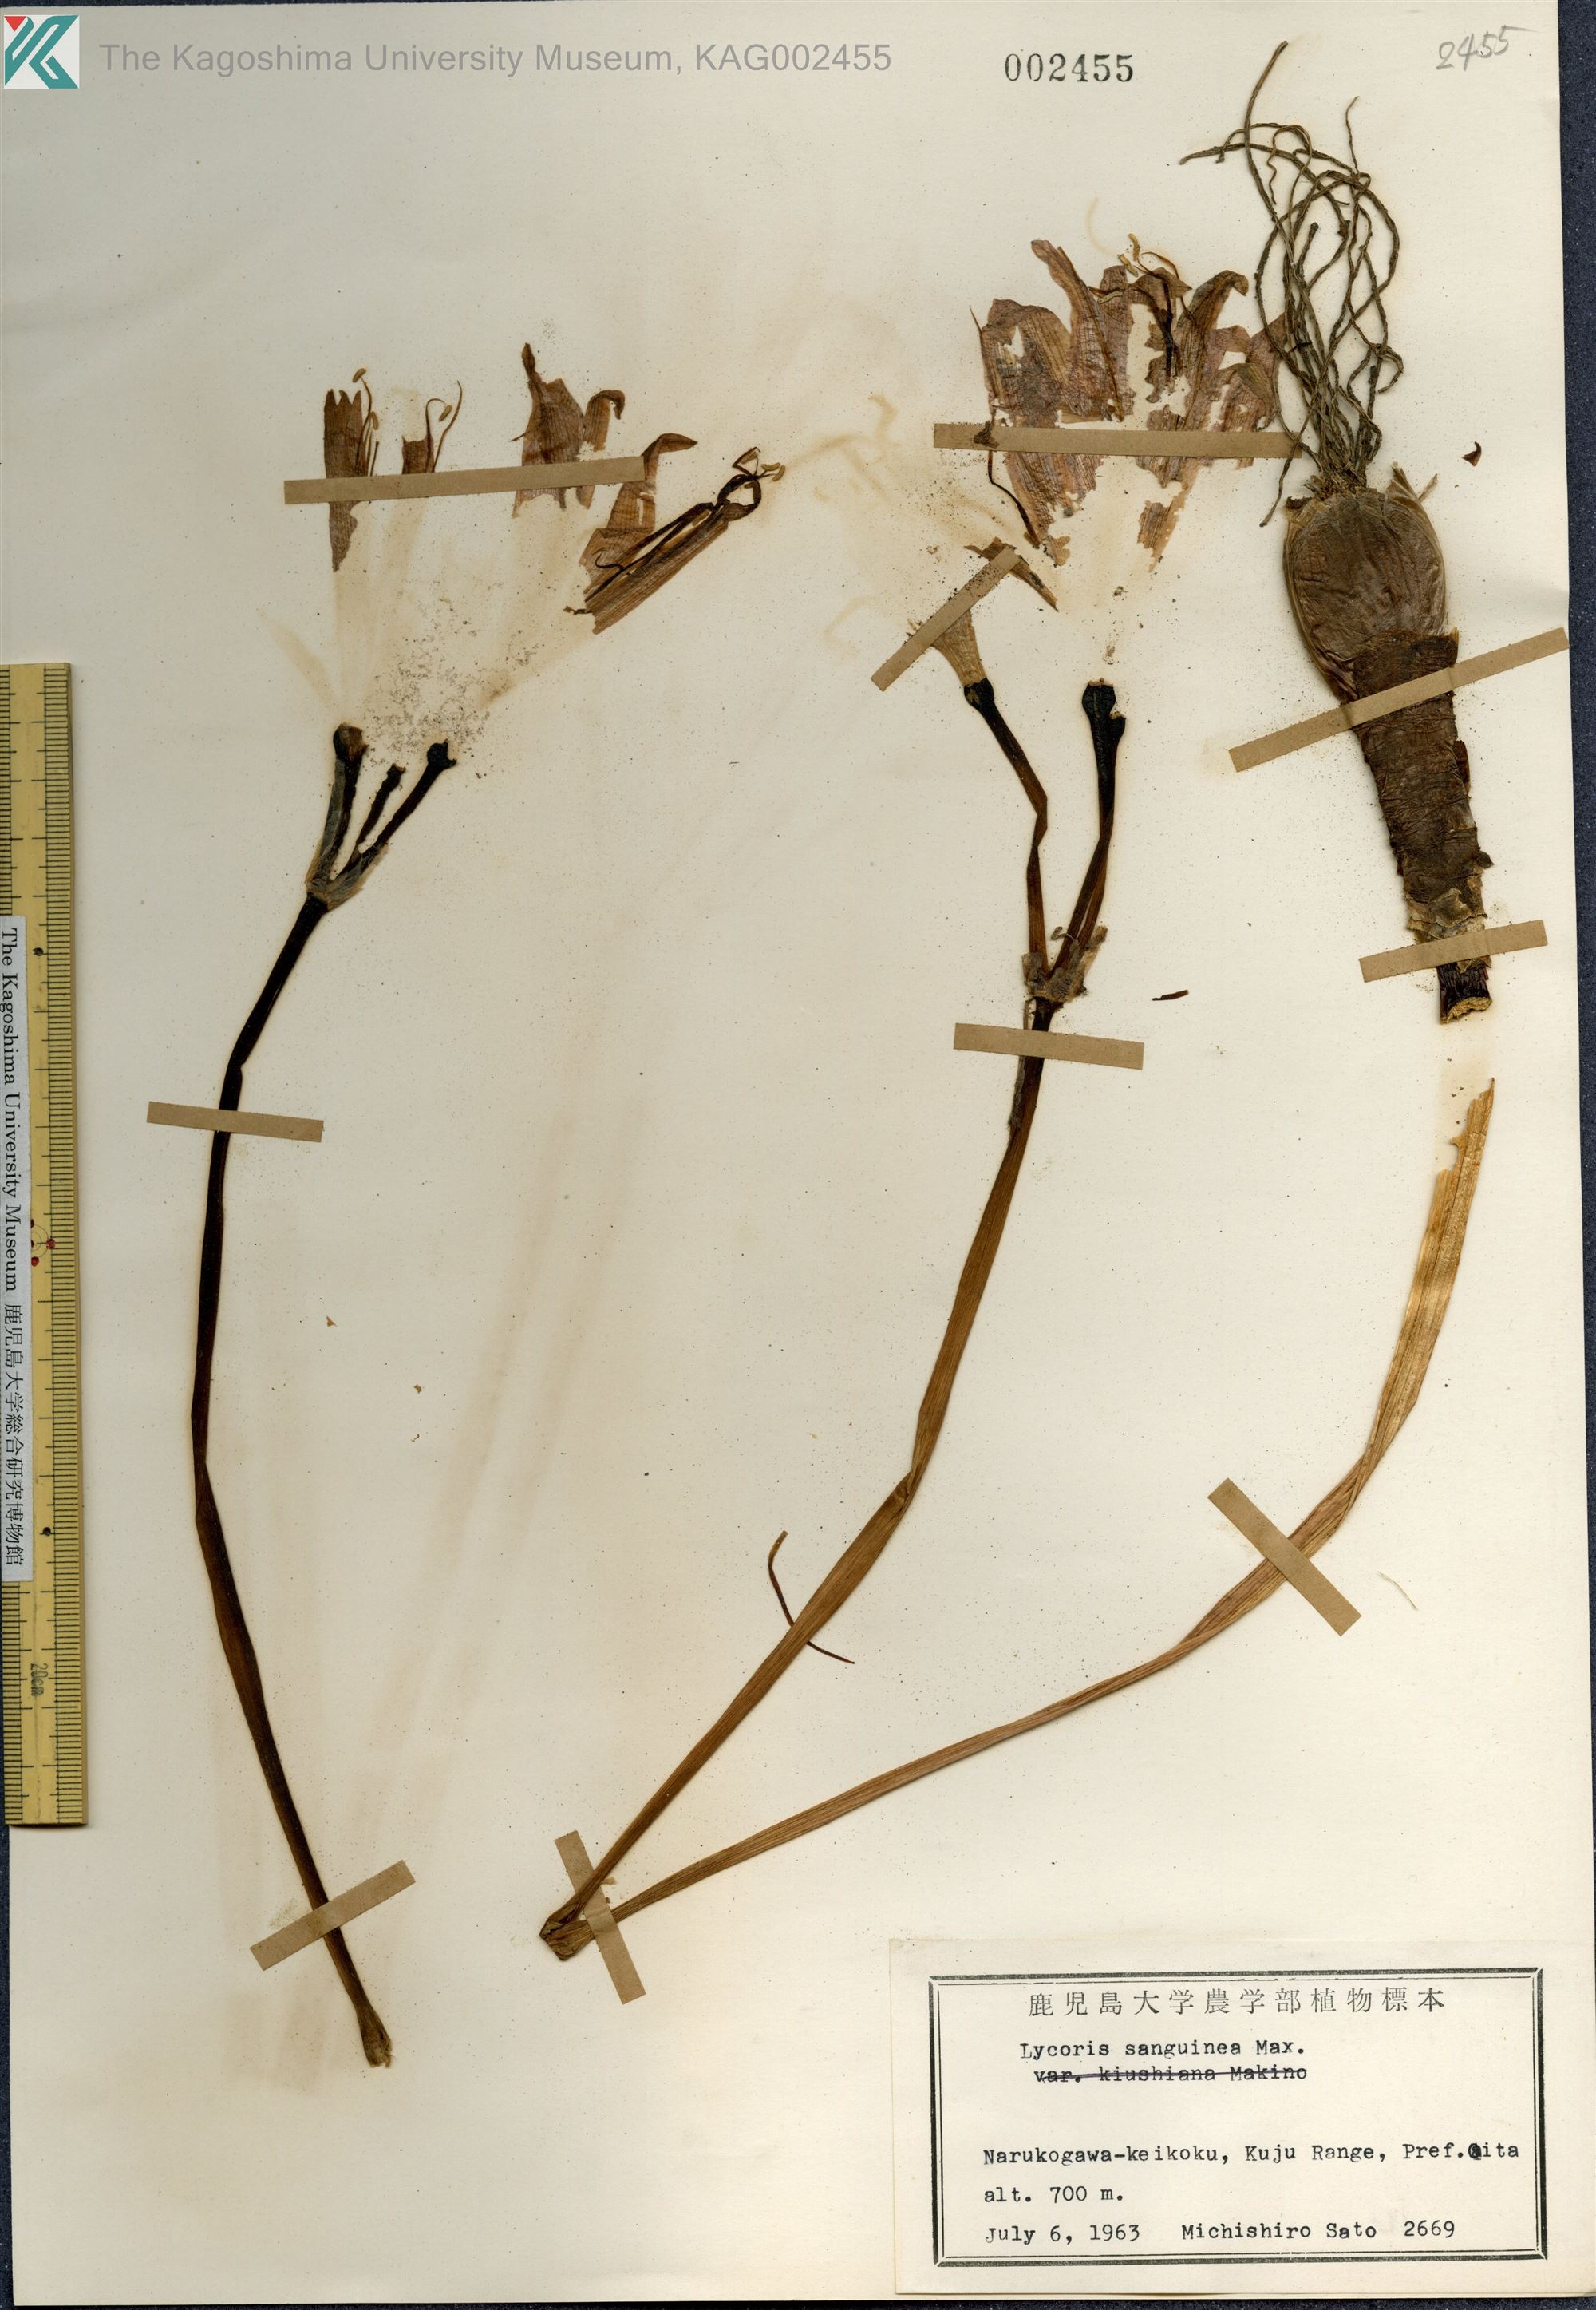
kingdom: Plantae
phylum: Tracheophyta
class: Liliopsida
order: Asparagales
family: Amaryllidaceae
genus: Lycoris
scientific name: Lycoris sanguinea
